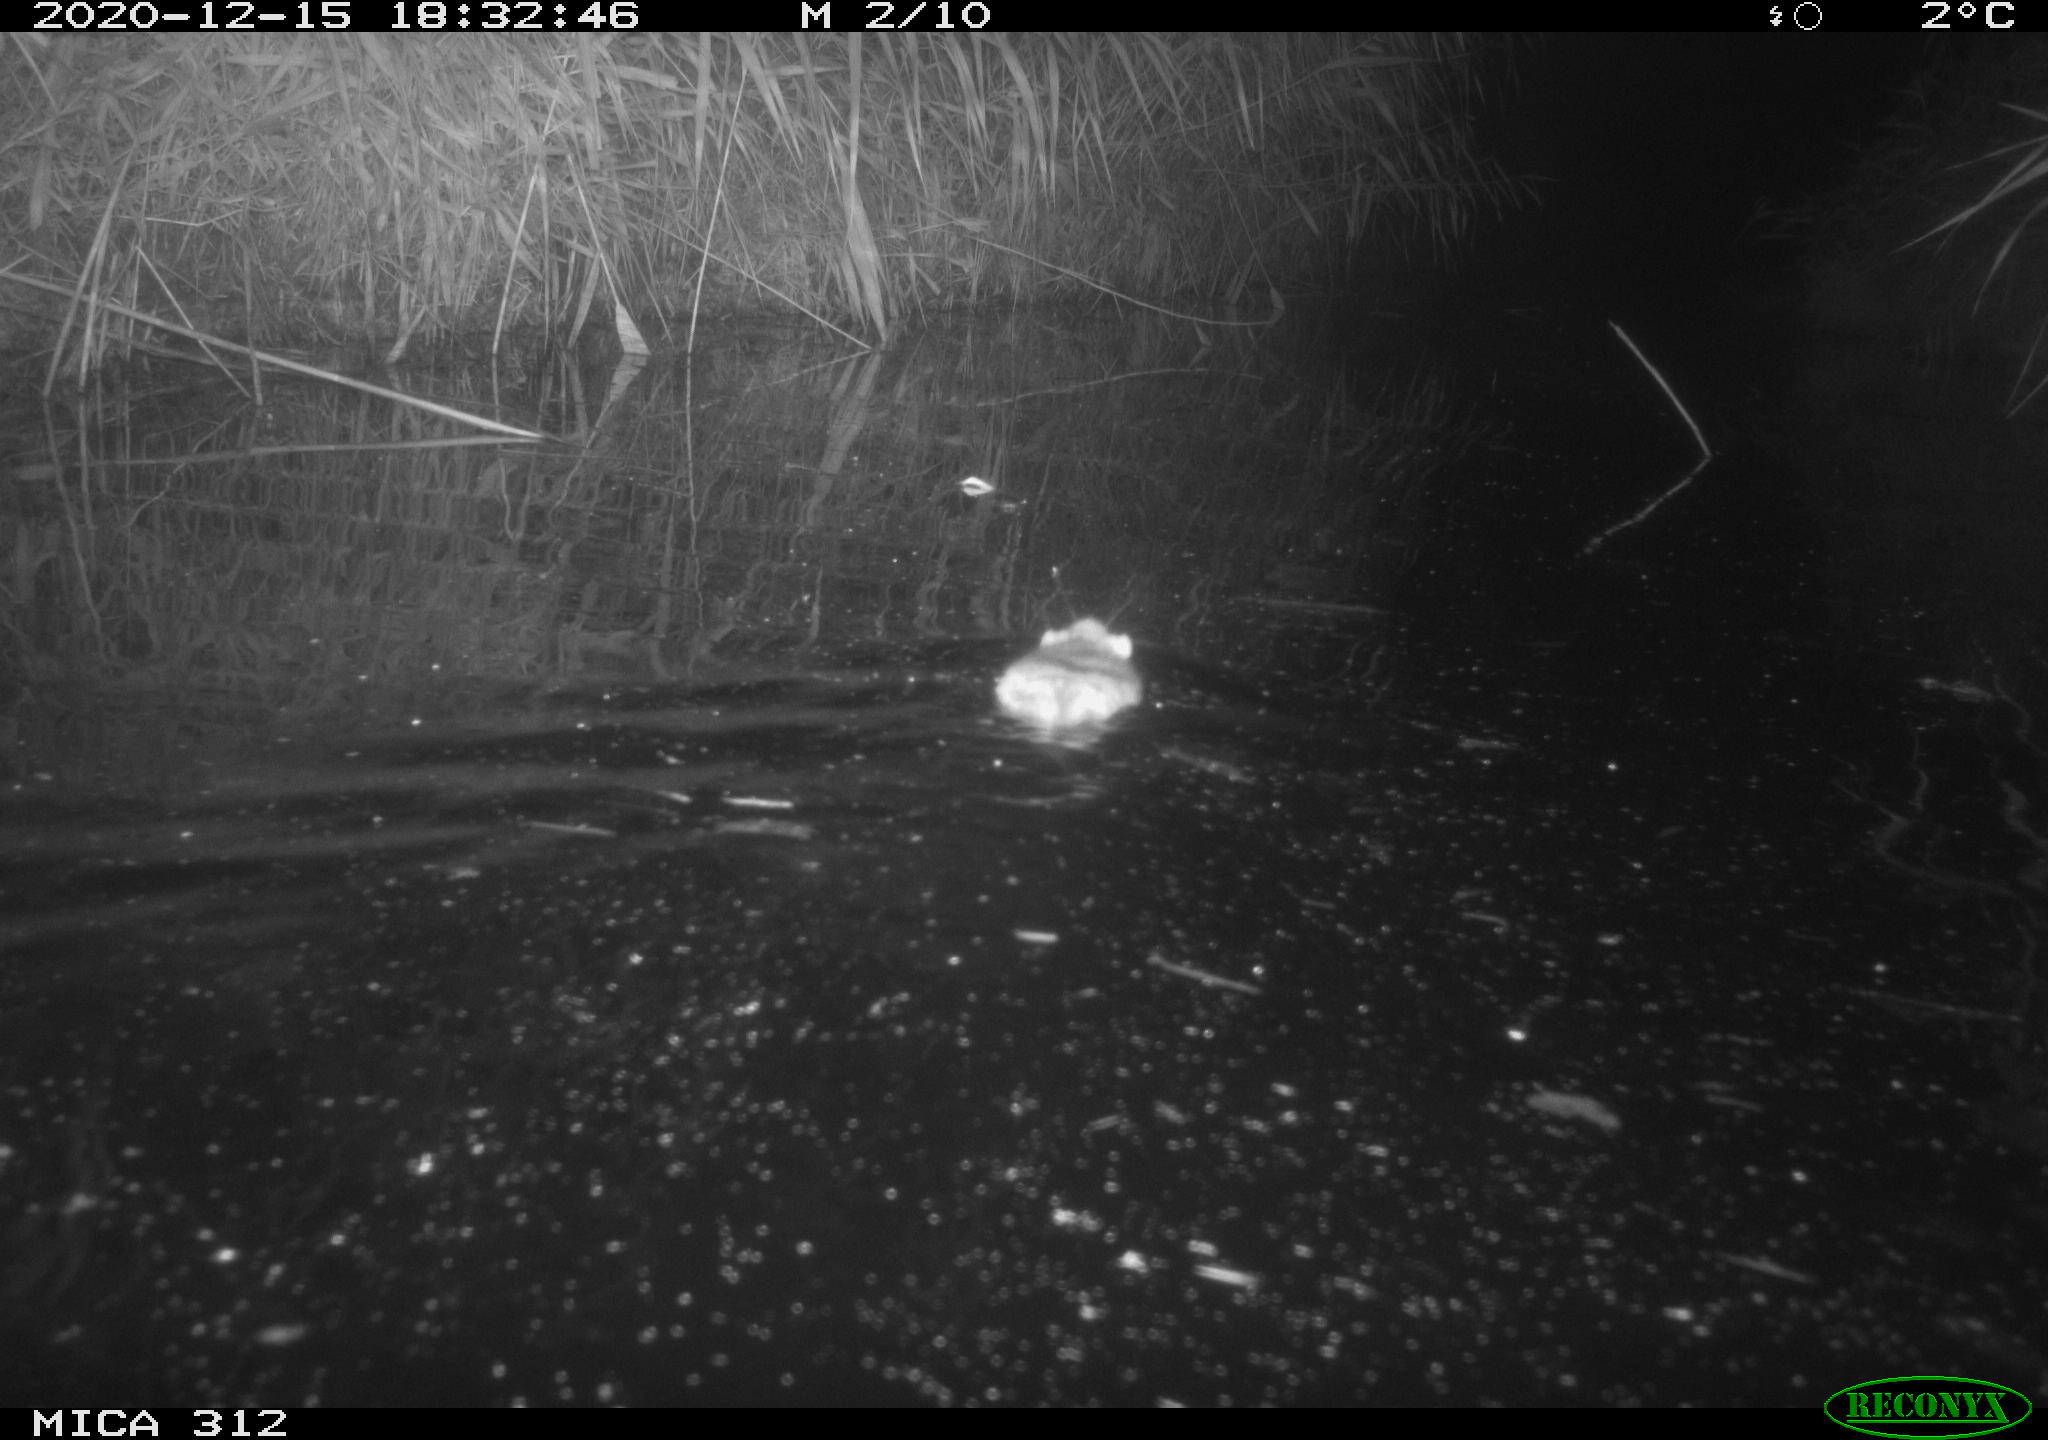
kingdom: Animalia
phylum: Chordata
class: Mammalia
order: Rodentia
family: Muridae
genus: Rattus
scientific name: Rattus norvegicus
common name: Brown rat
